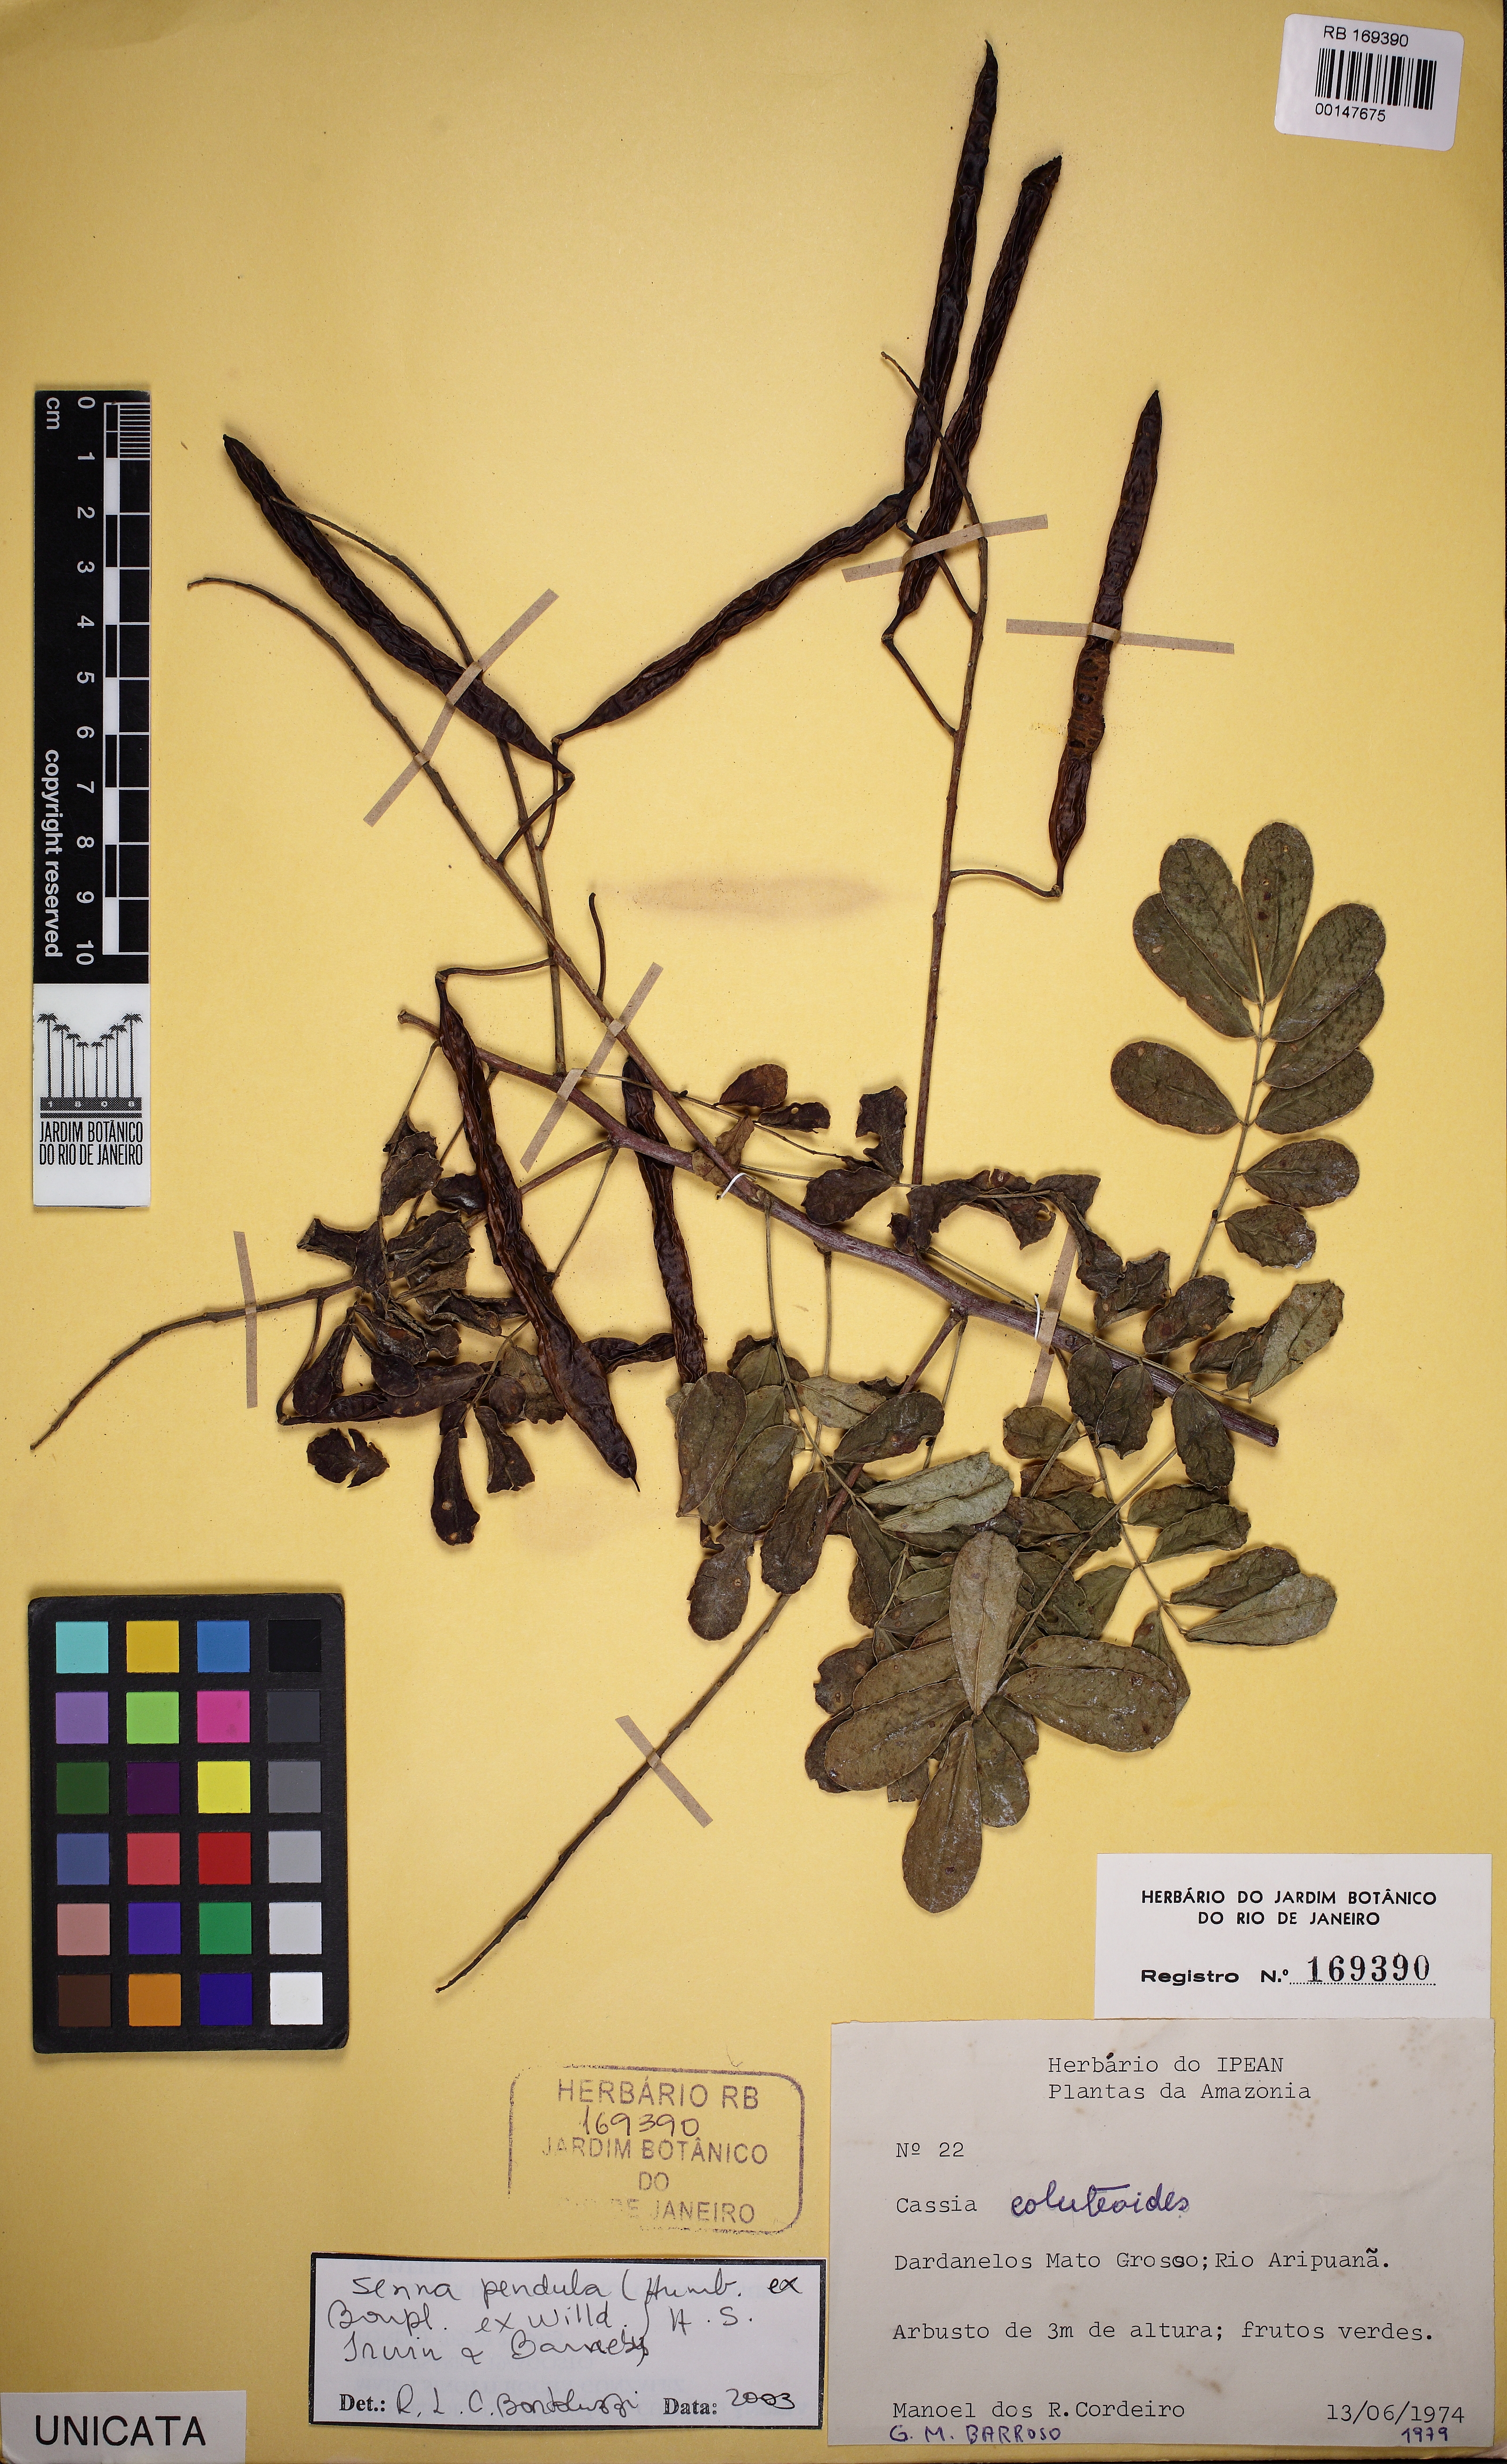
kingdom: Plantae
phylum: Tracheophyta
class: Magnoliopsida
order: Fabales
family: Fabaceae
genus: Senna
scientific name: Senna pendula
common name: Easter cassia
